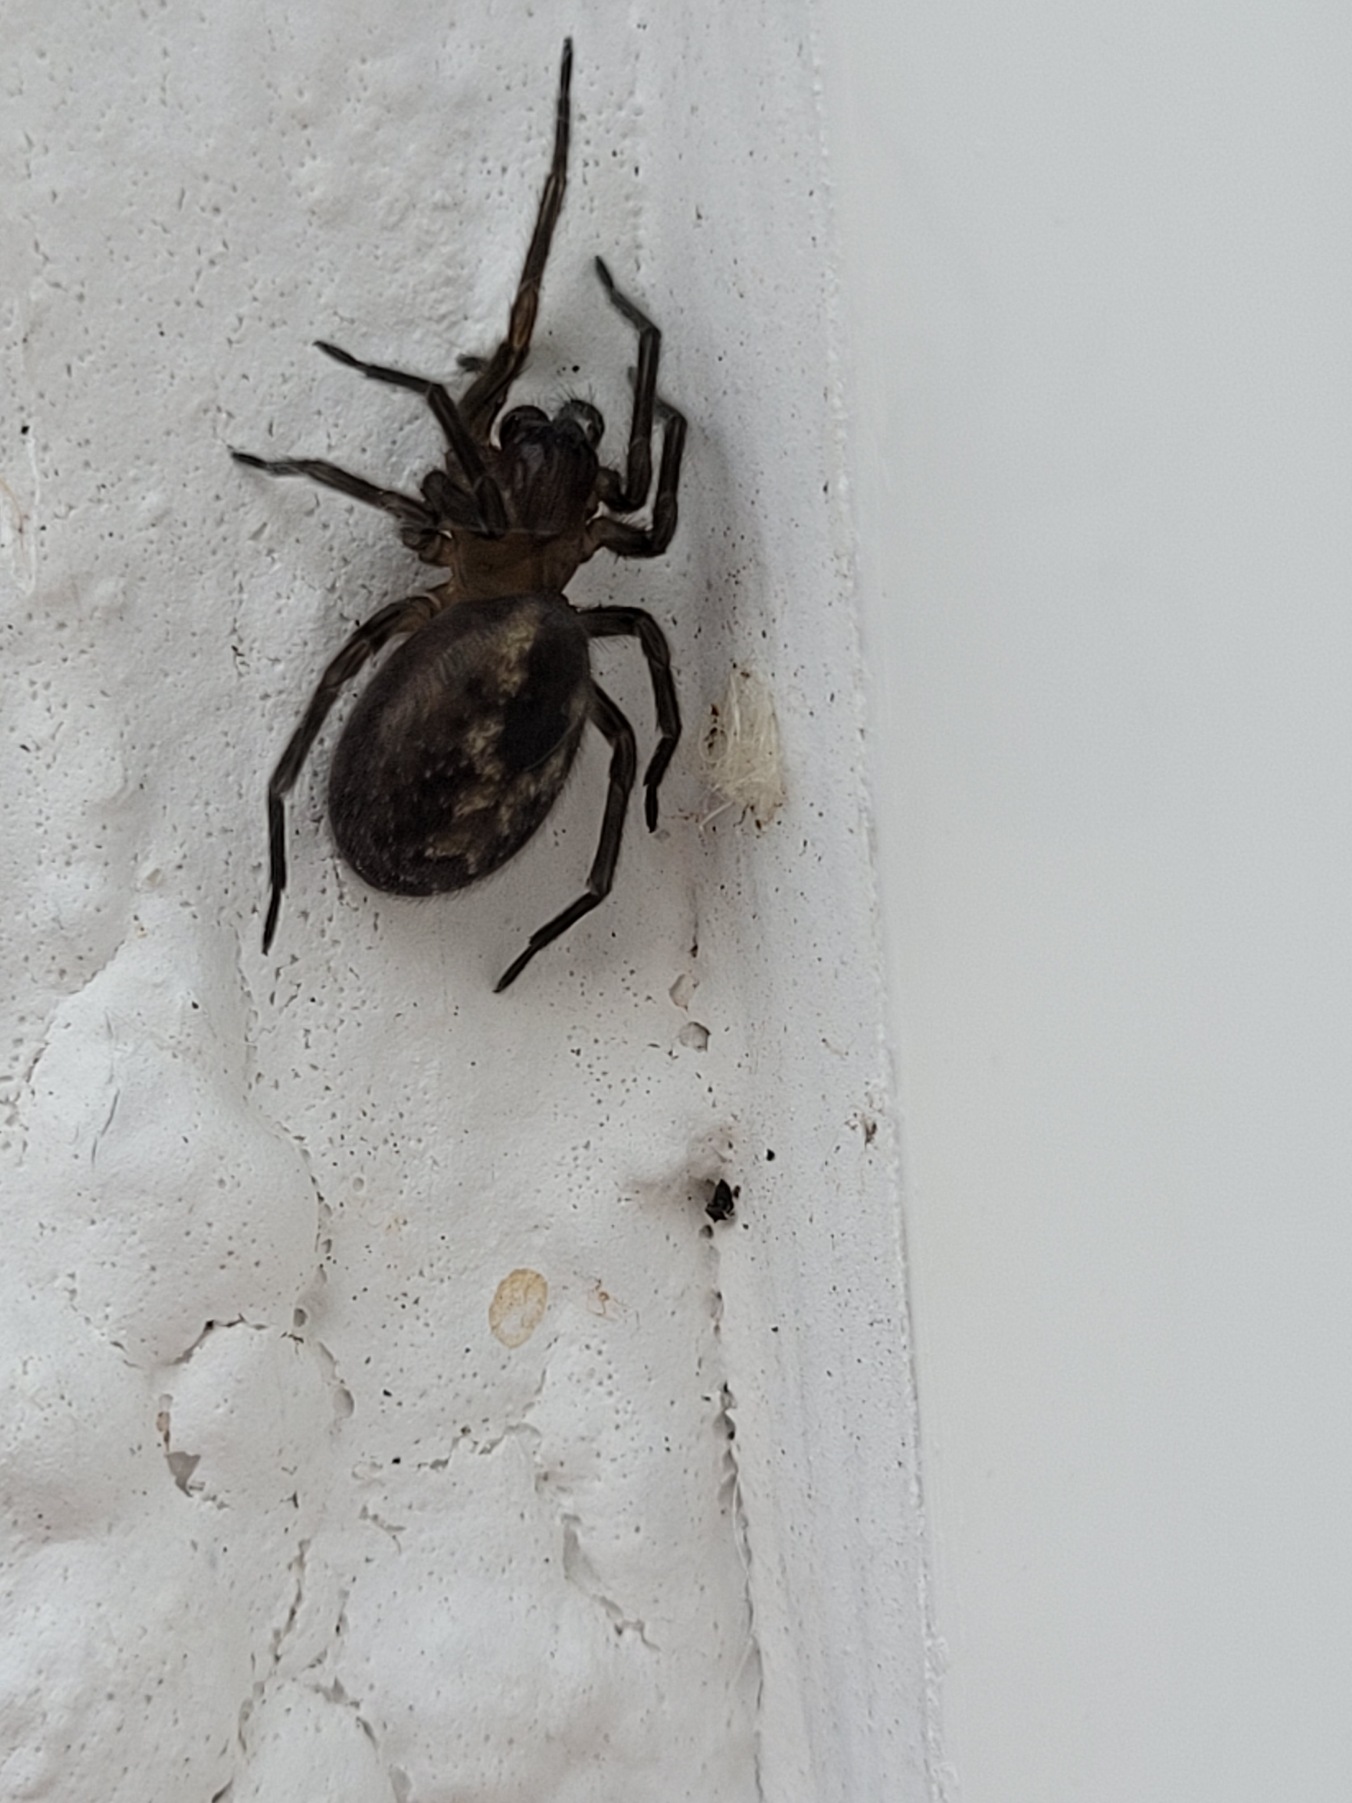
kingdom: Animalia
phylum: Arthropoda
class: Arachnida
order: Araneae
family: Amaurobiidae
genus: Amaurobius
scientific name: Amaurobius similis
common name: Huskartespinder
